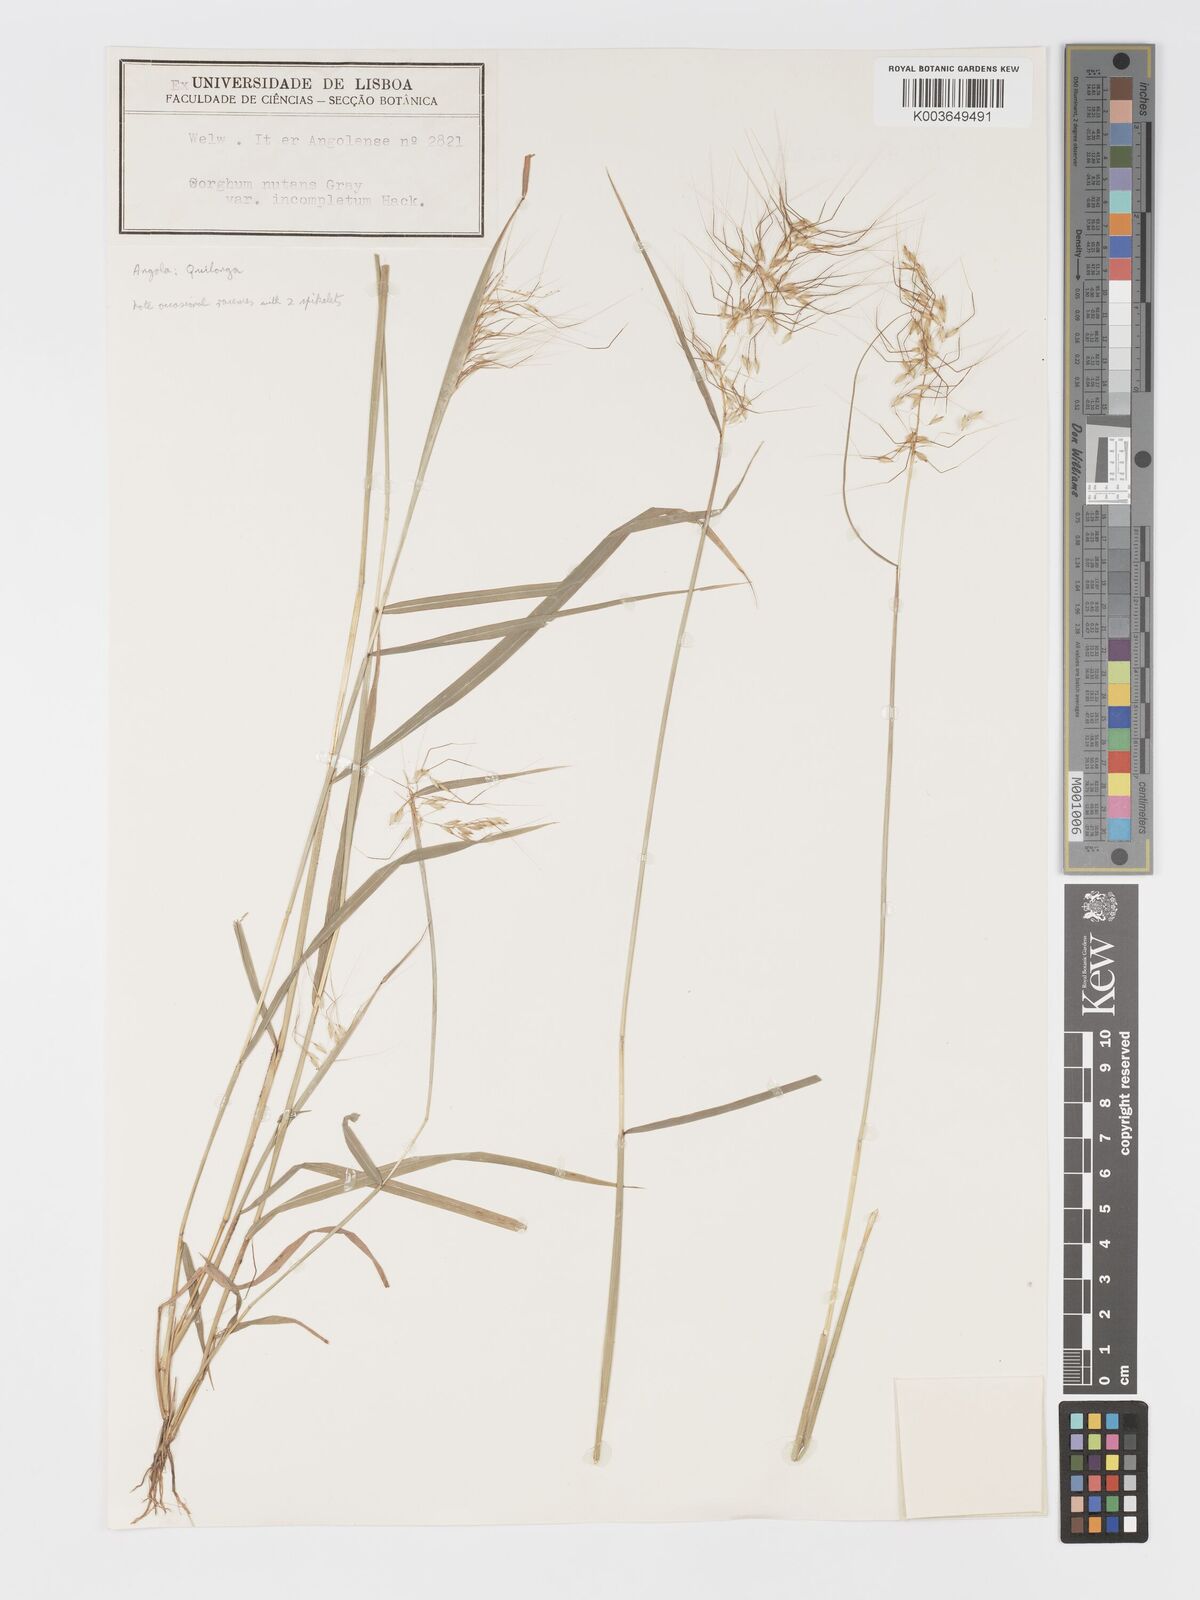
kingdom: Plantae
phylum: Tracheophyta
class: Liliopsida
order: Poales
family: Poaceae
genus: Sorghastrum
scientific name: Sorghastrum incompletum
